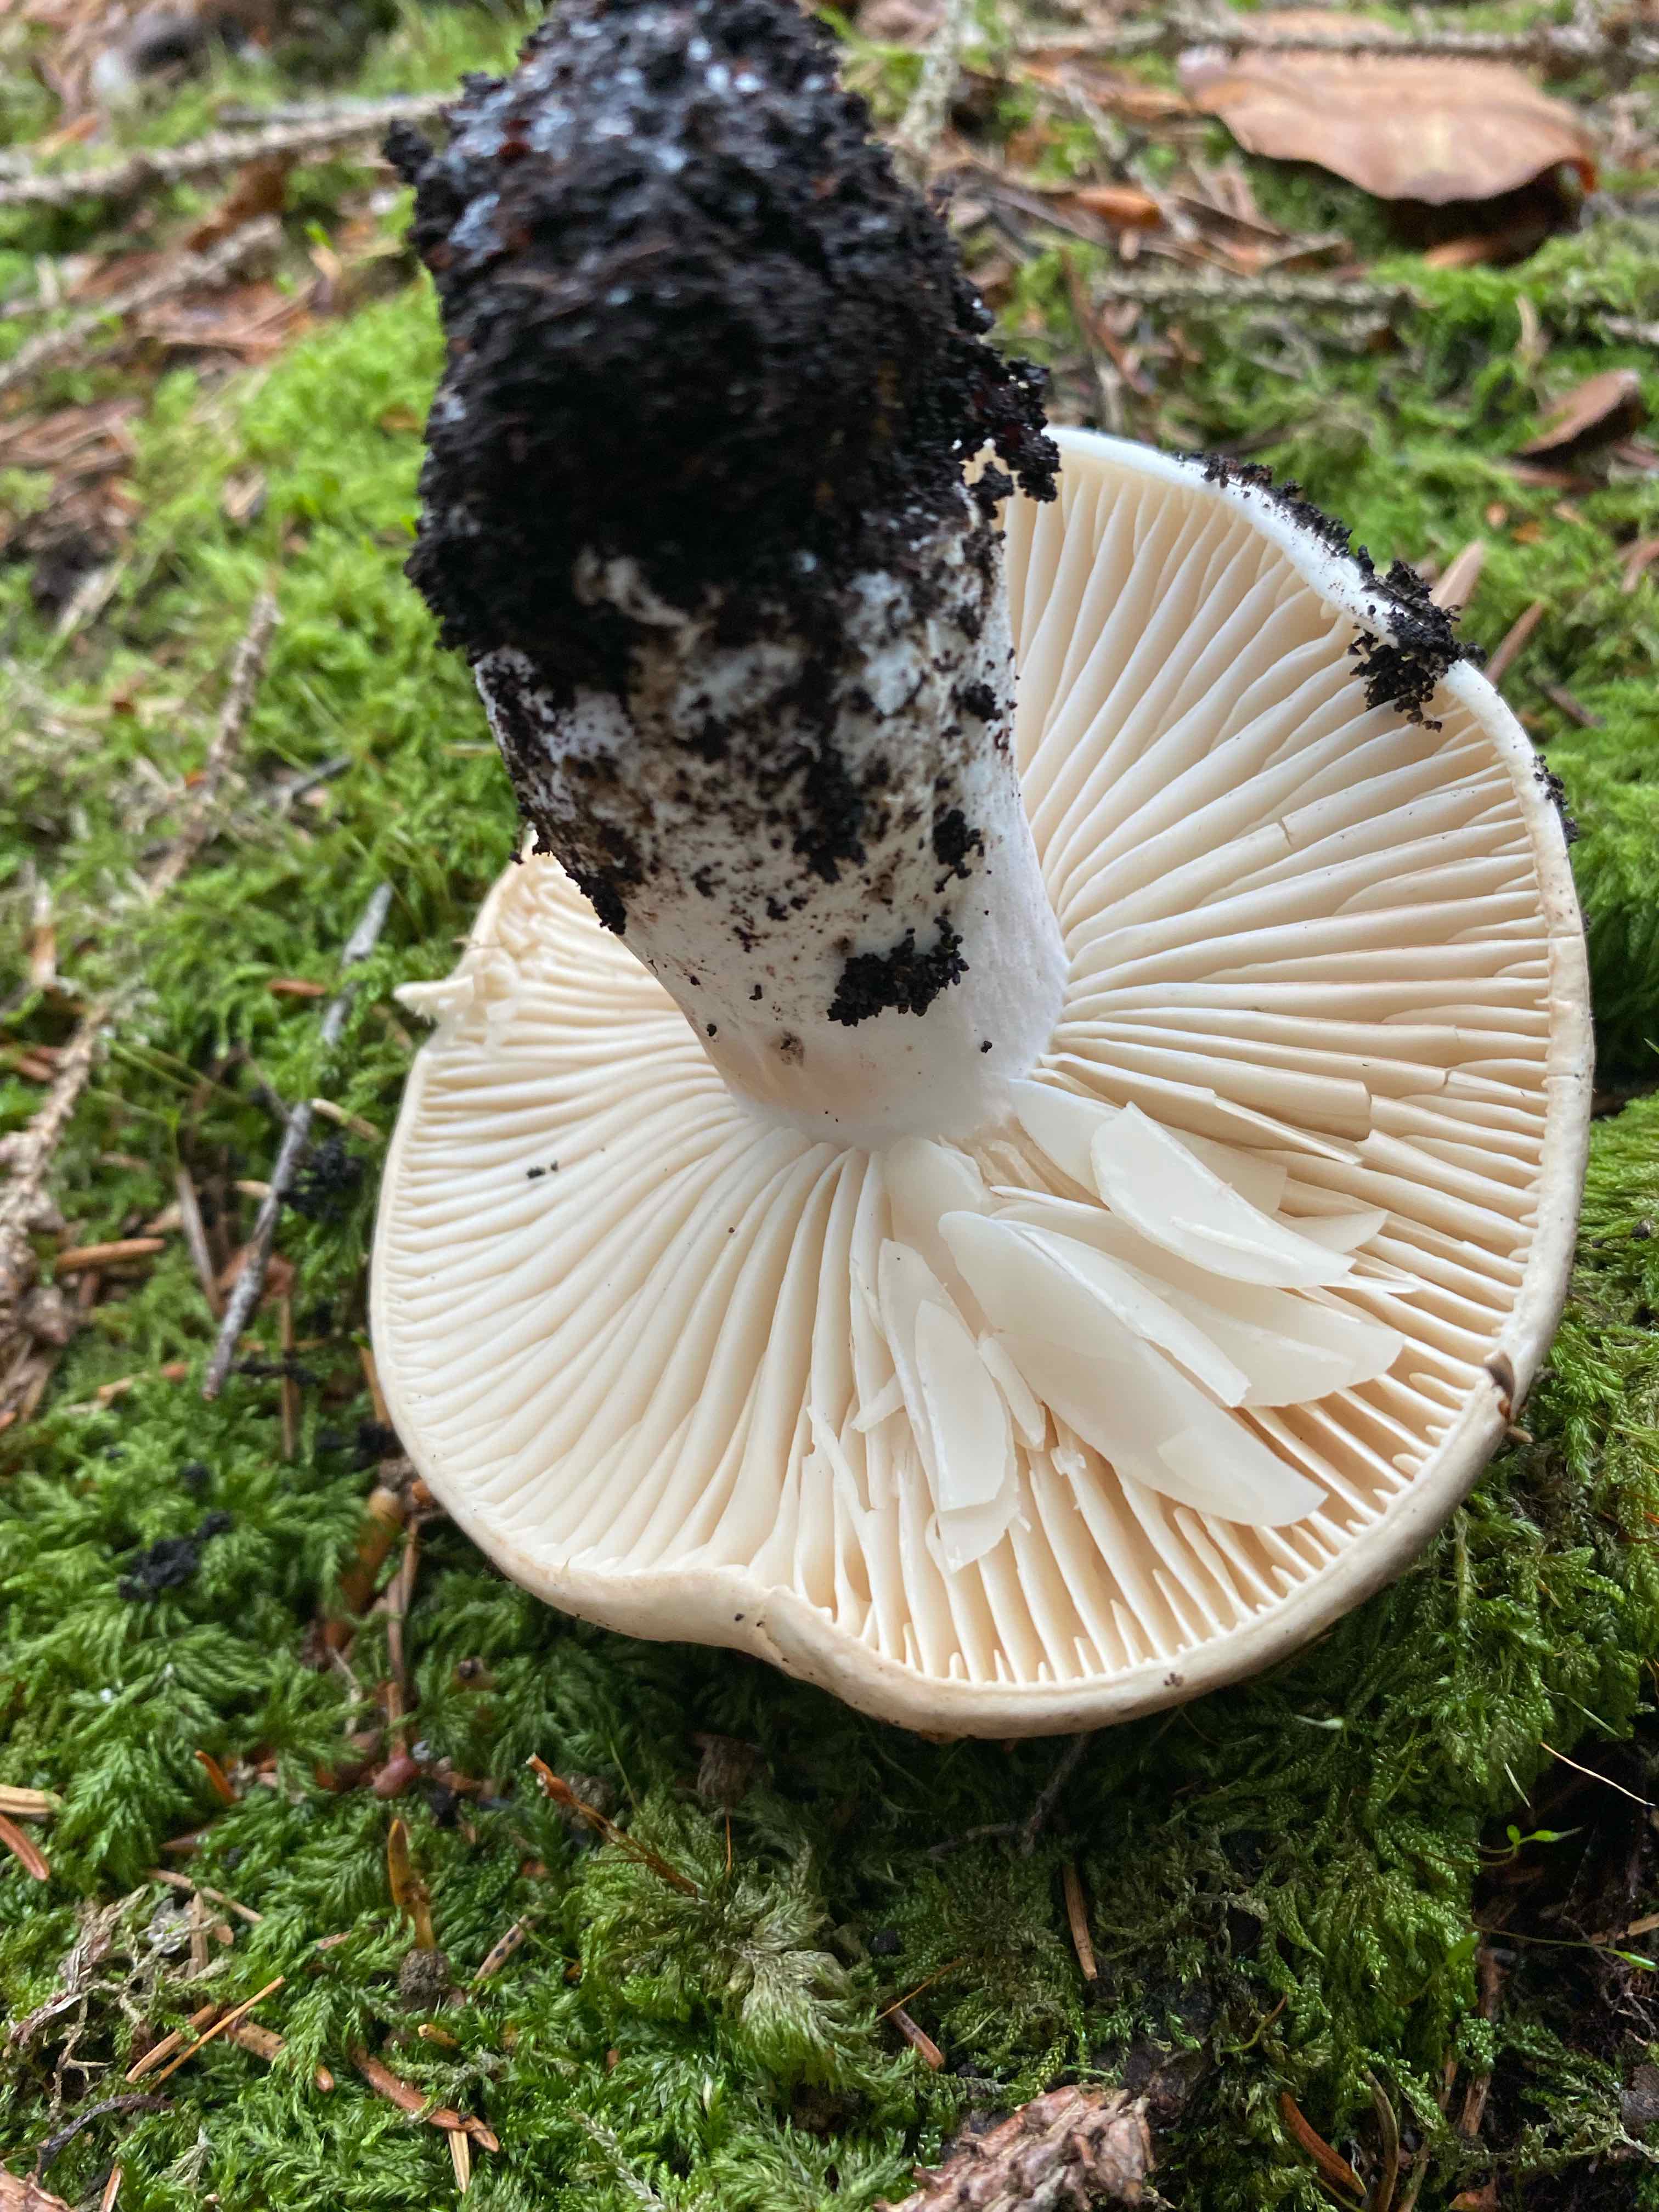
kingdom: Fungi
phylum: Basidiomycota
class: Agaricomycetes
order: Russulales
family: Russulaceae
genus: Russula
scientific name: Russula adusta
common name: sværtende skørhat
